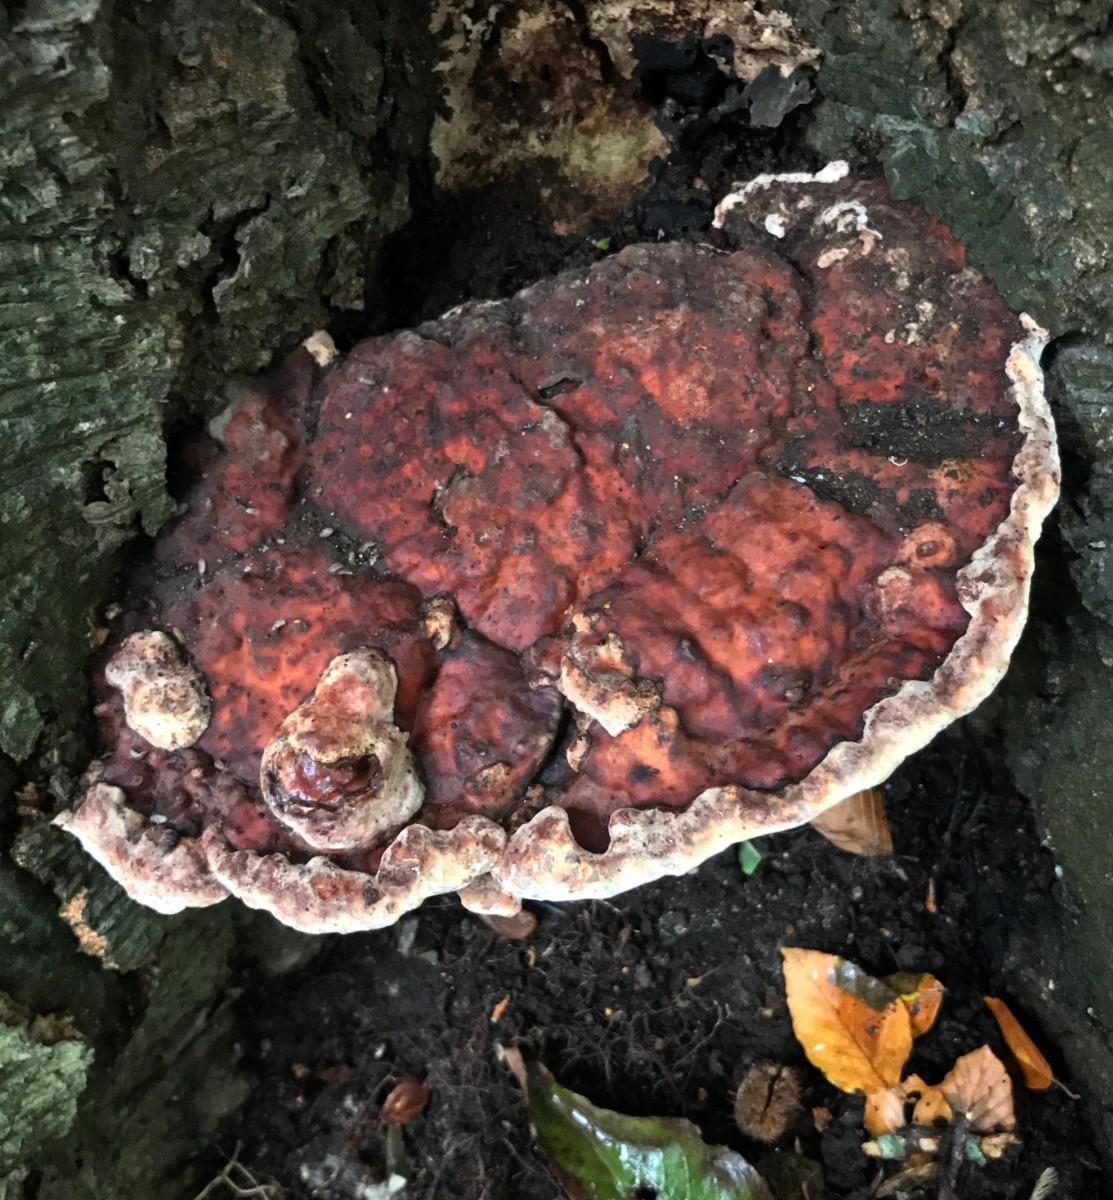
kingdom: Fungi
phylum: Basidiomycota
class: Agaricomycetes
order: Polyporales
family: Polyporaceae
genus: Ganoderma
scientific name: Ganoderma pfeifferi
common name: kobberrød lakporesvamp
